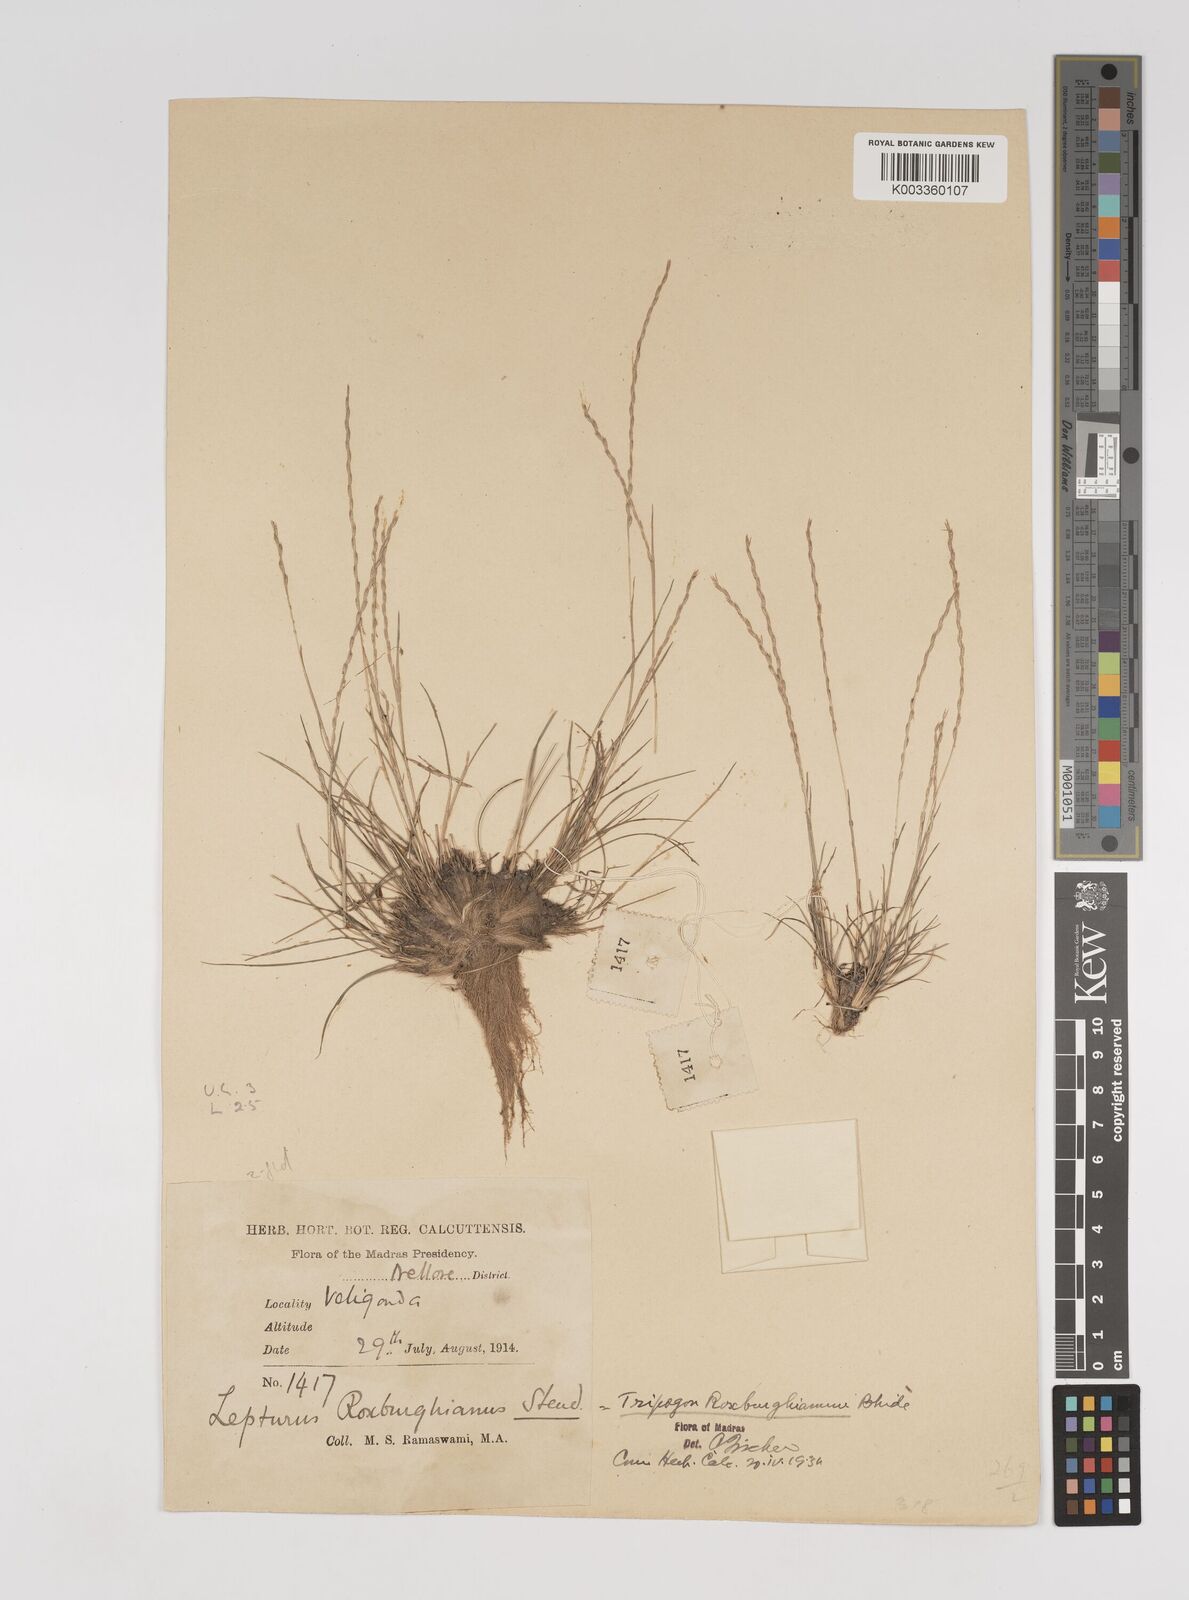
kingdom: Plantae
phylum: Tracheophyta
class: Liliopsida
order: Poales
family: Poaceae
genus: Oropetium
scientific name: Oropetium roxburghianum
